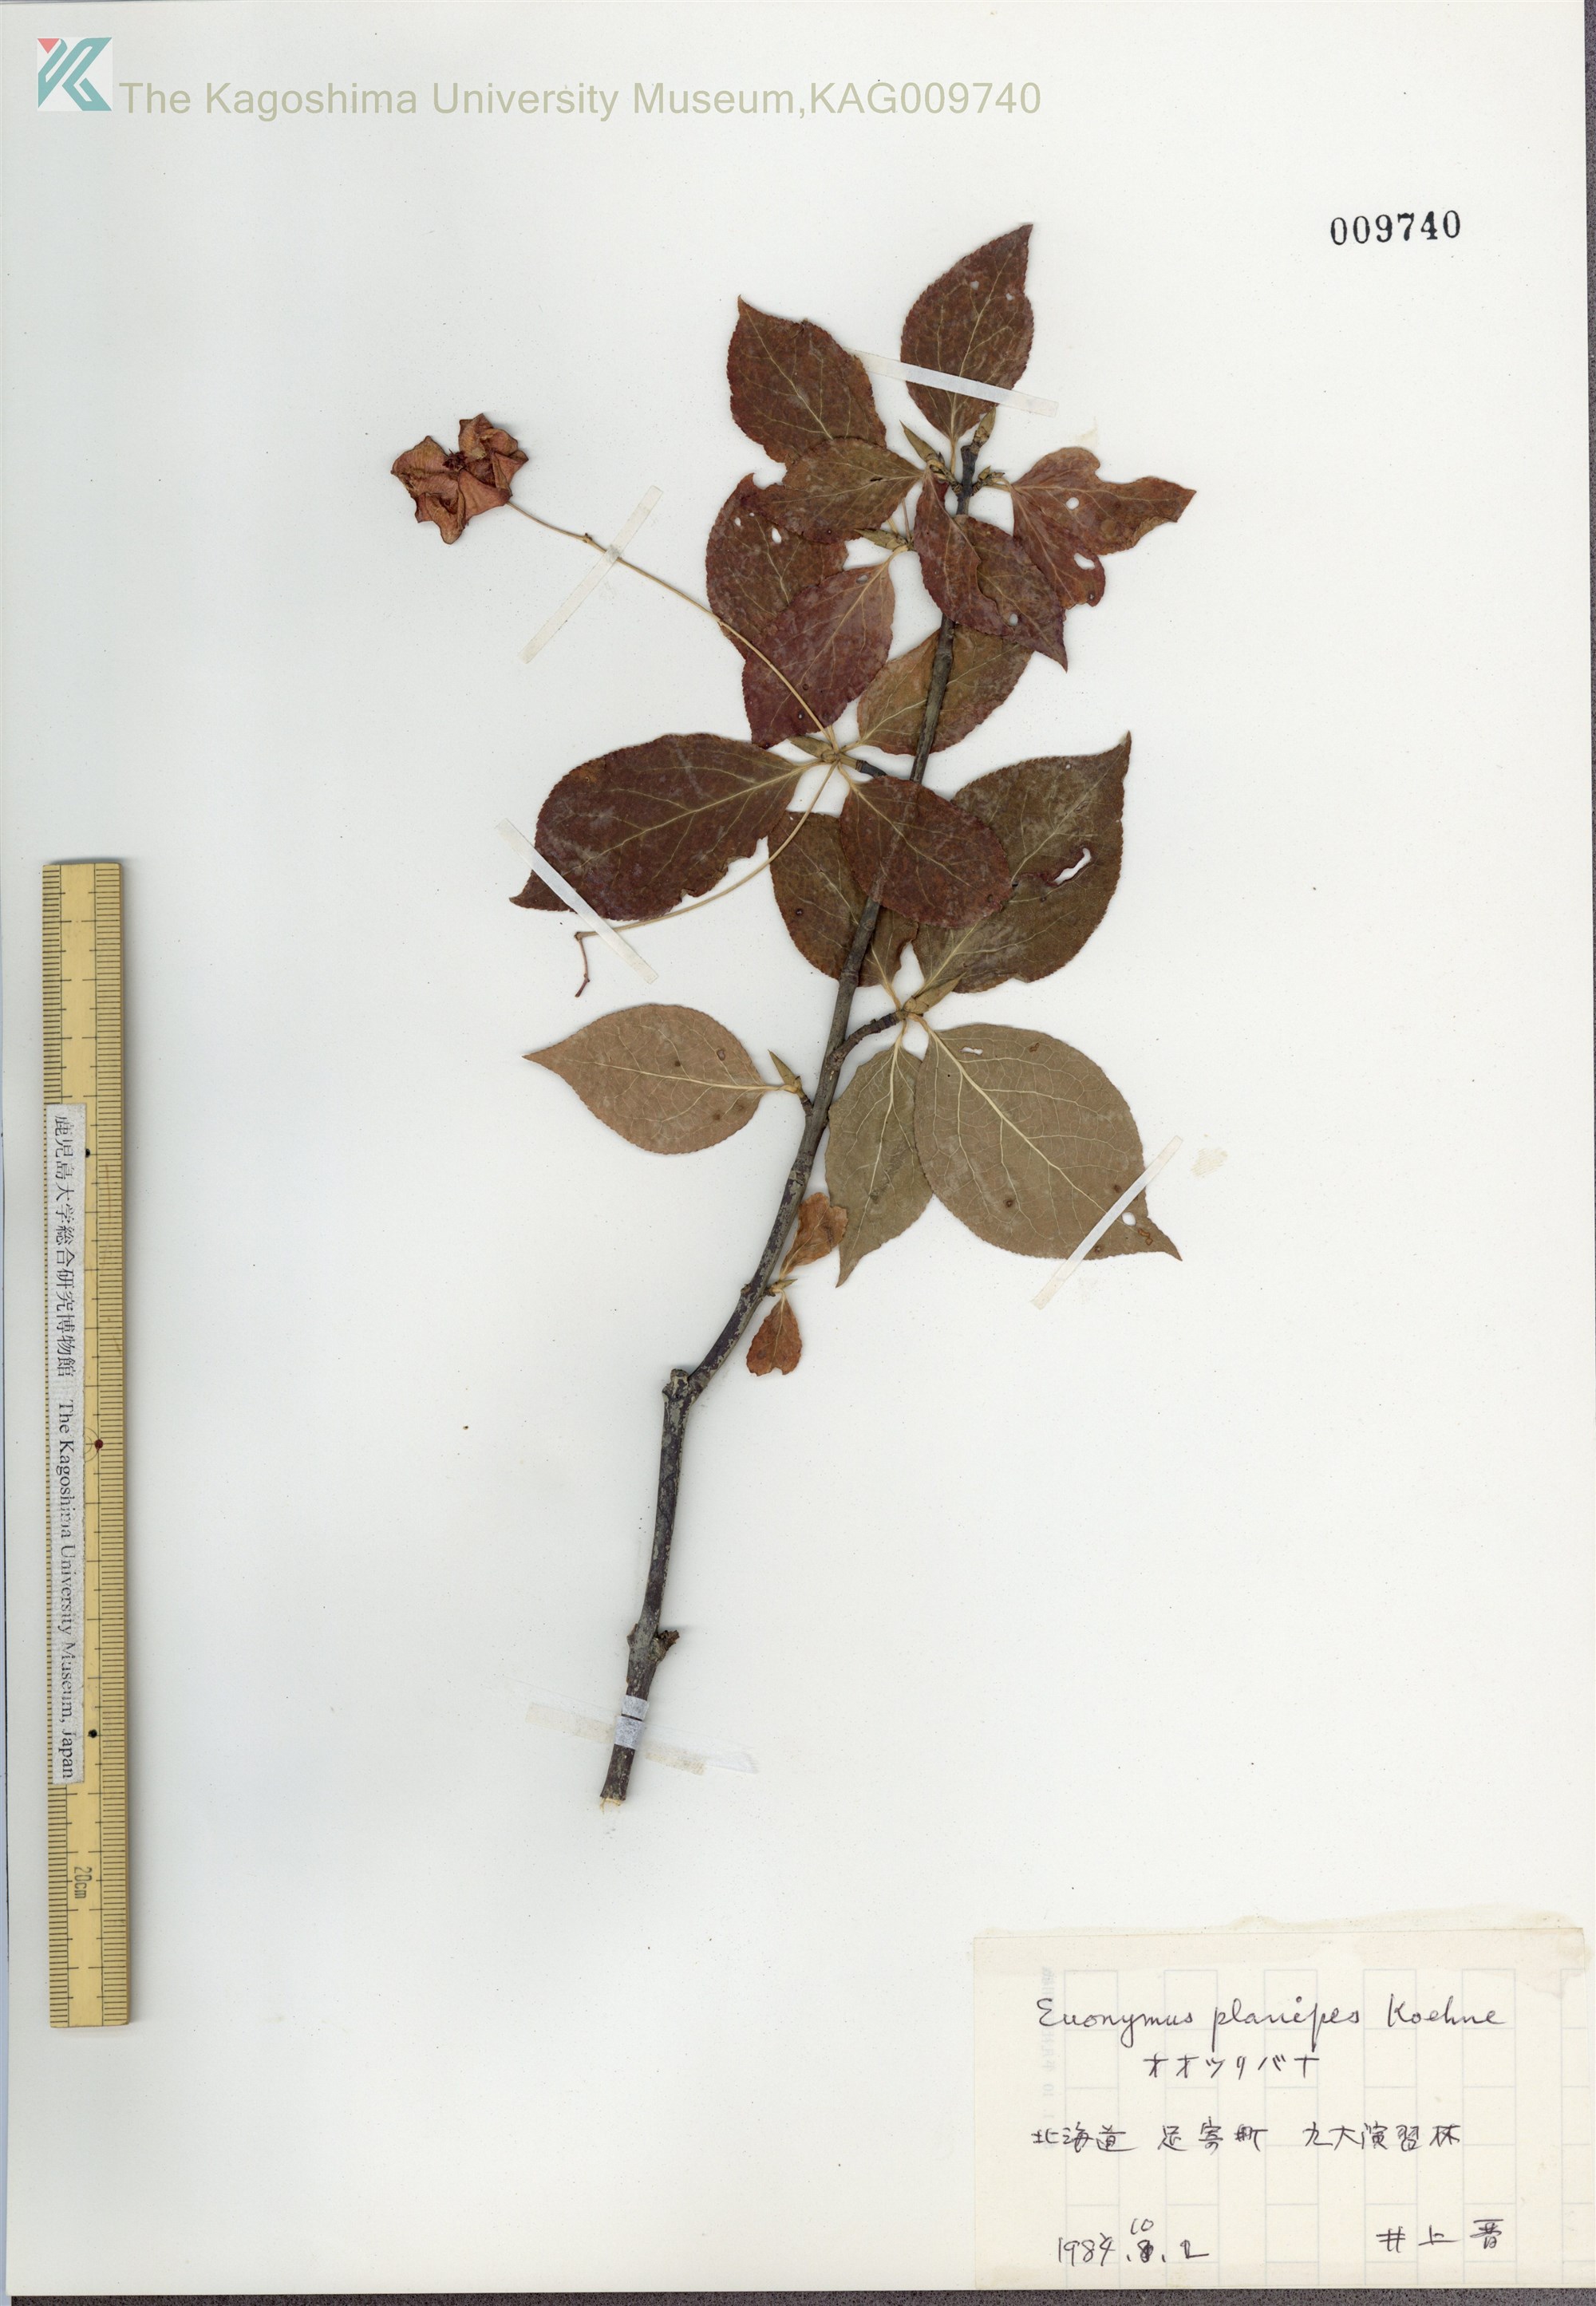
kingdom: Plantae
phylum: Tracheophyta
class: Magnoliopsida
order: Celastrales
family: Celastraceae
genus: Euonymus
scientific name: Euonymus sachalinensis
